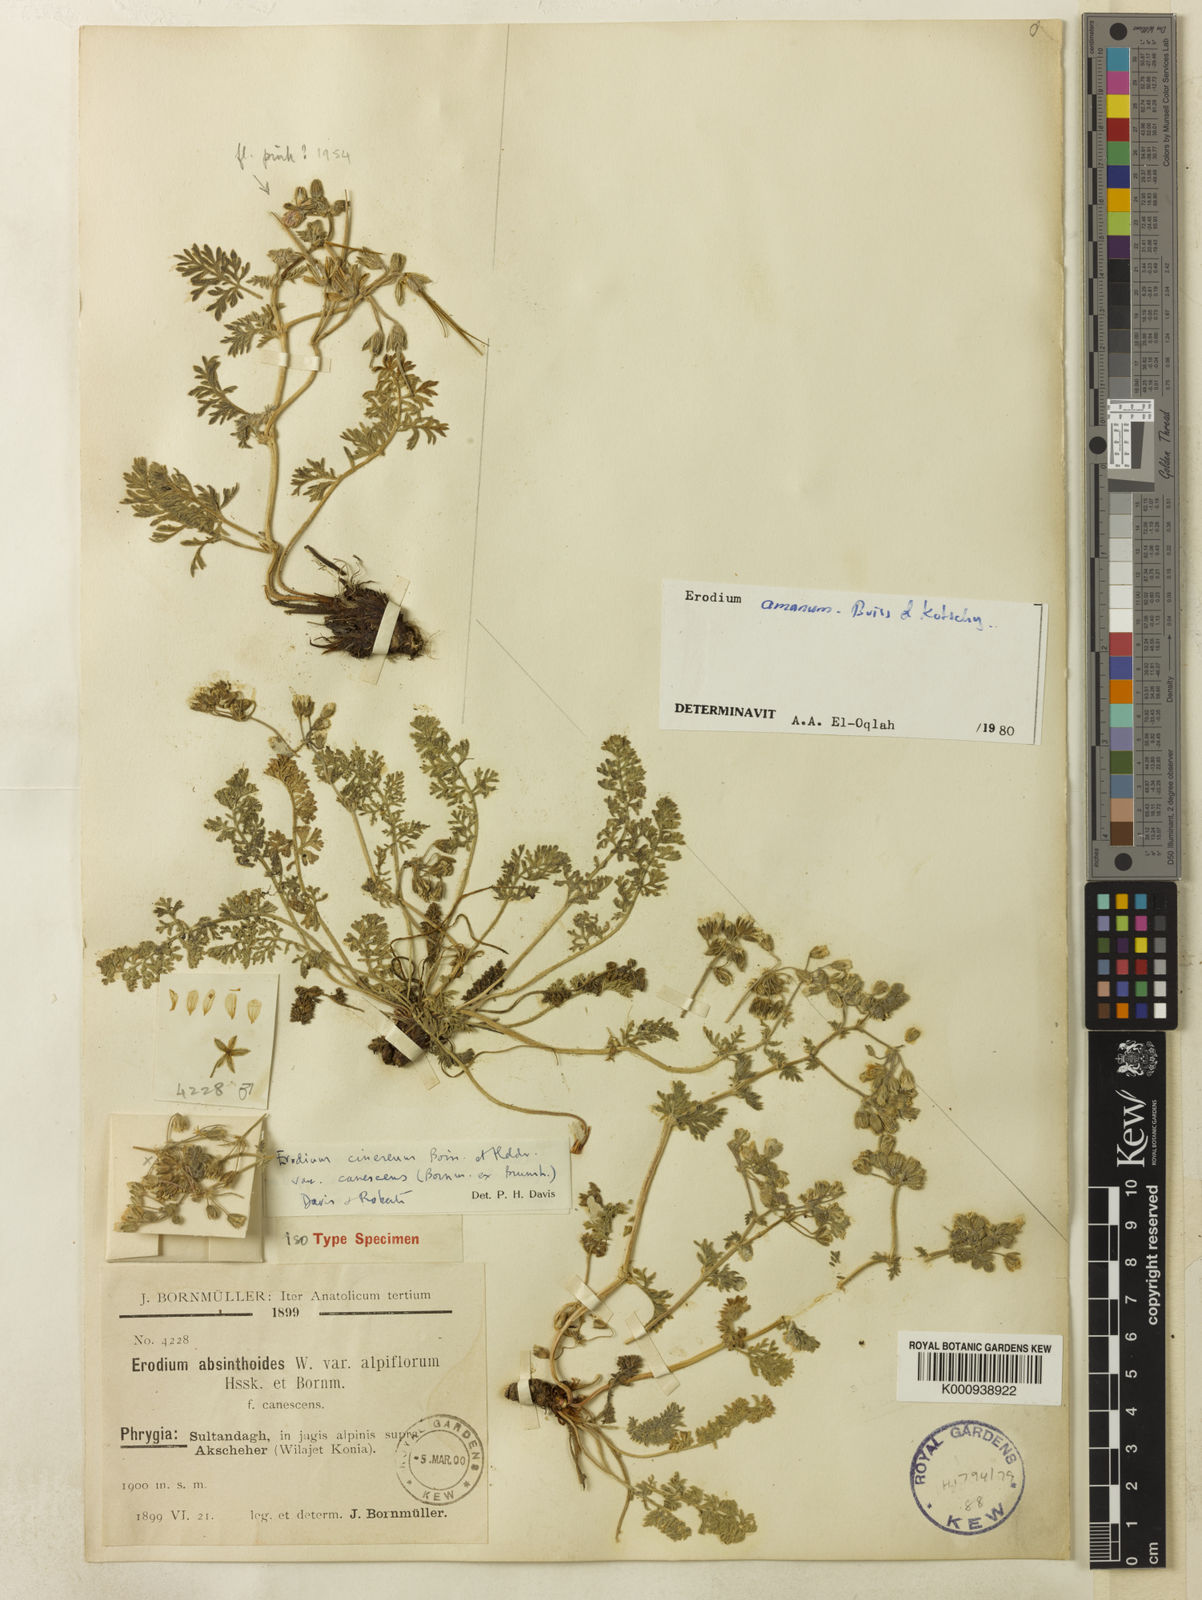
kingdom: Plantae
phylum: Tracheophyta
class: Magnoliopsida
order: Geraniales
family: Geraniaceae
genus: Erodium
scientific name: Erodium trichomanifolium
